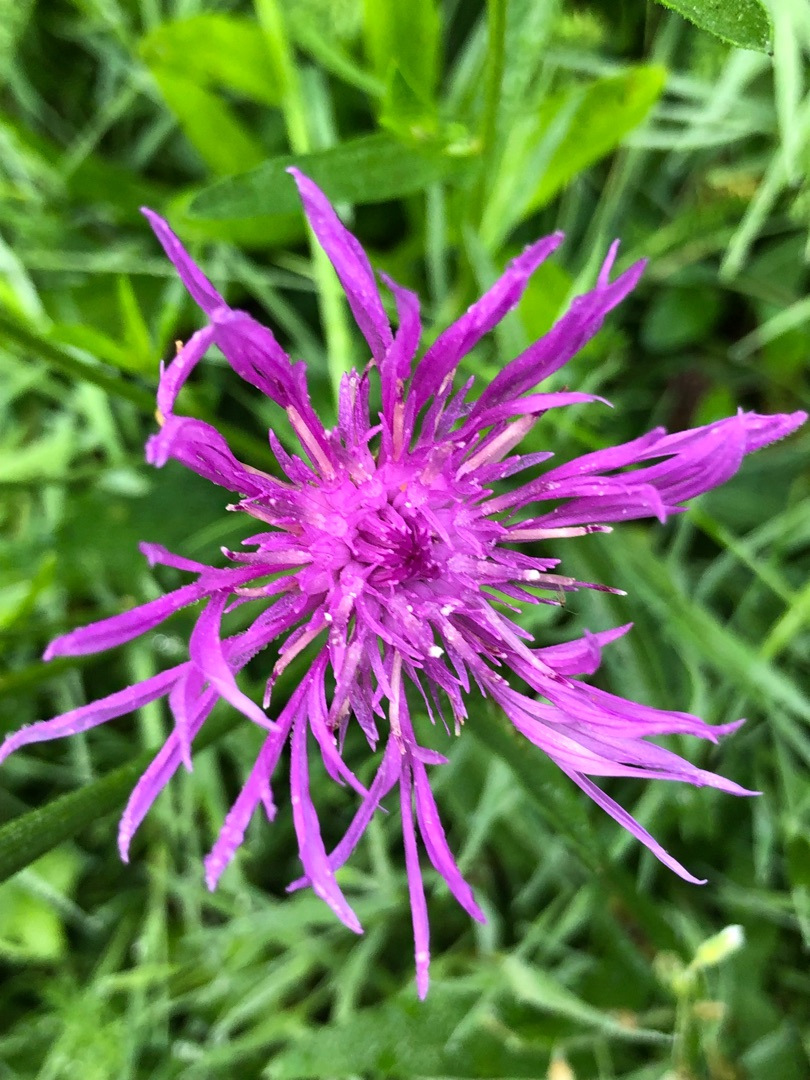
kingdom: Plantae
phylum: Tracheophyta
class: Magnoliopsida
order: Asterales
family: Asteraceae
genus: Centaurea
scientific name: Centaurea jacea
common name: Almindelig knopurt
